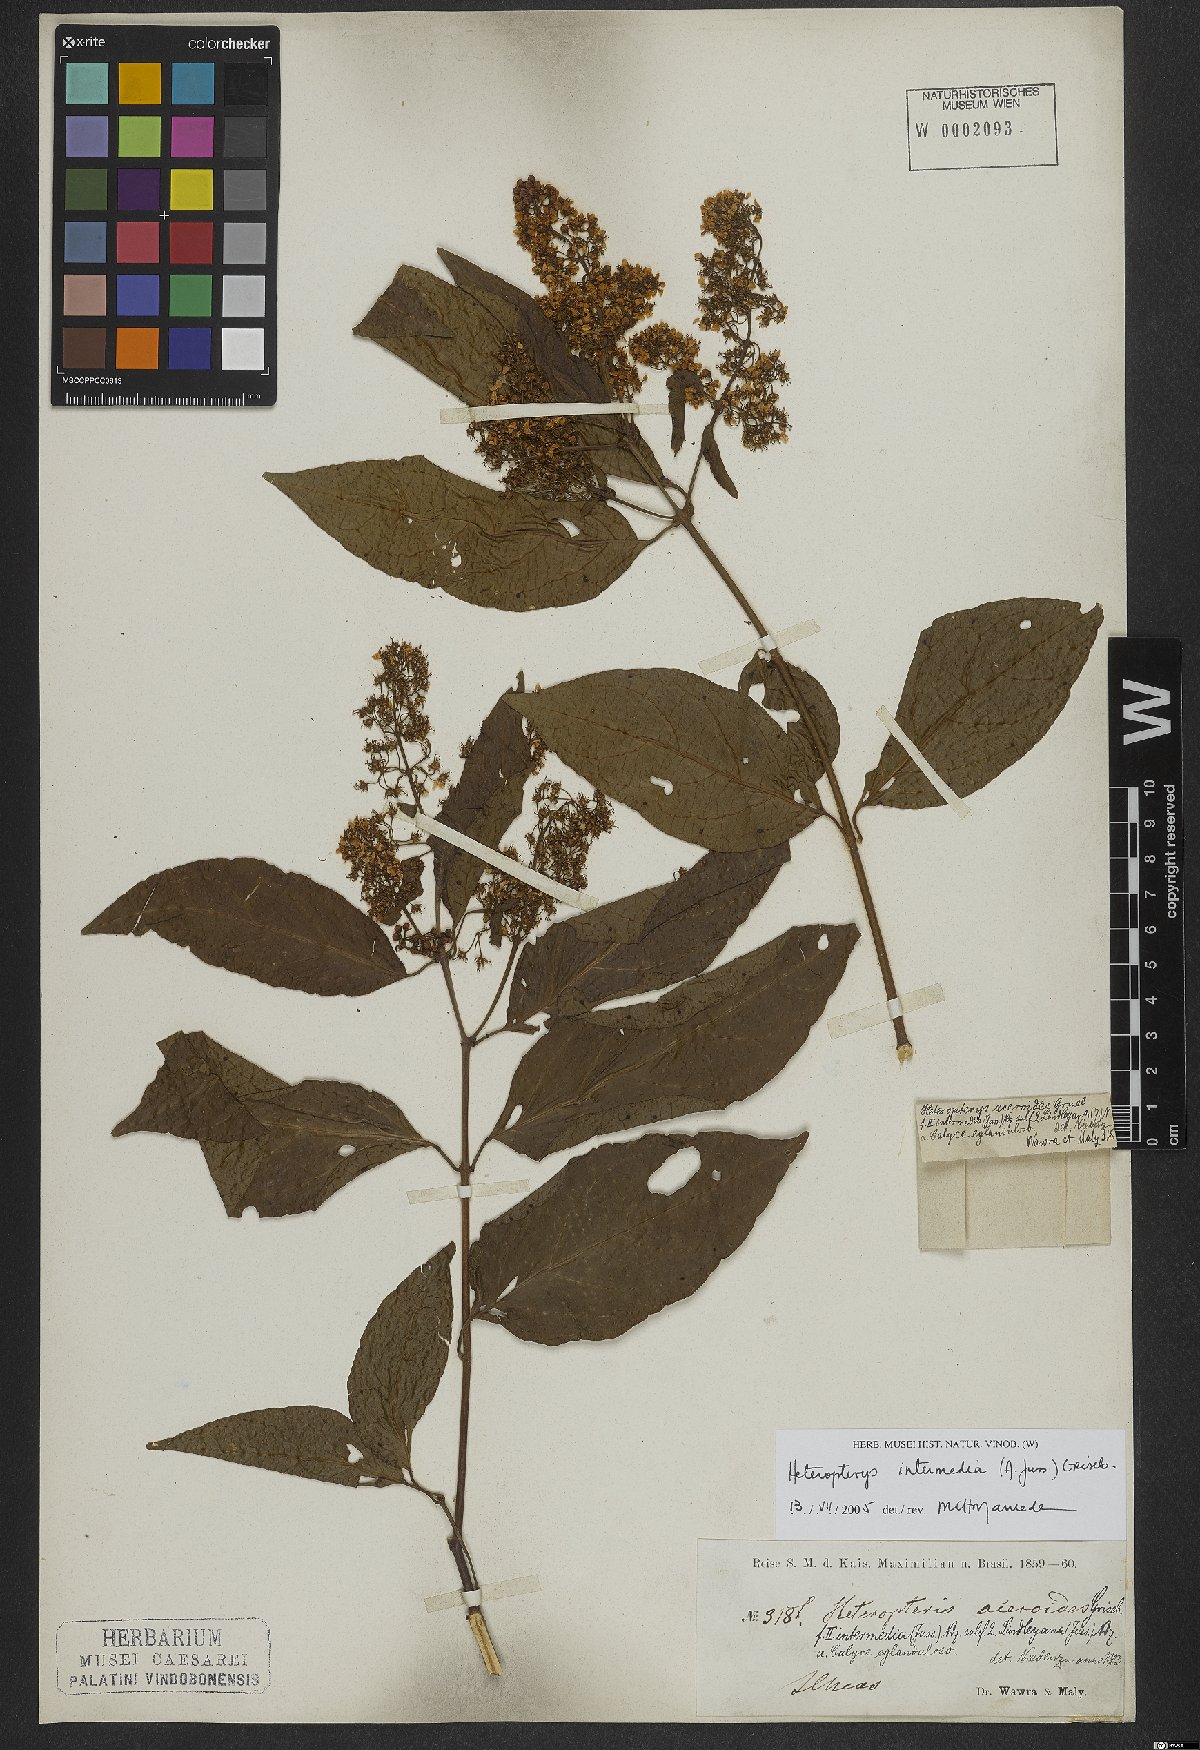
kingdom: Plantae
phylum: Tracheophyta
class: Magnoliopsida
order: Malpighiales
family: Malpighiaceae
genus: Heteropterys
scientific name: Heteropterys intermedia
